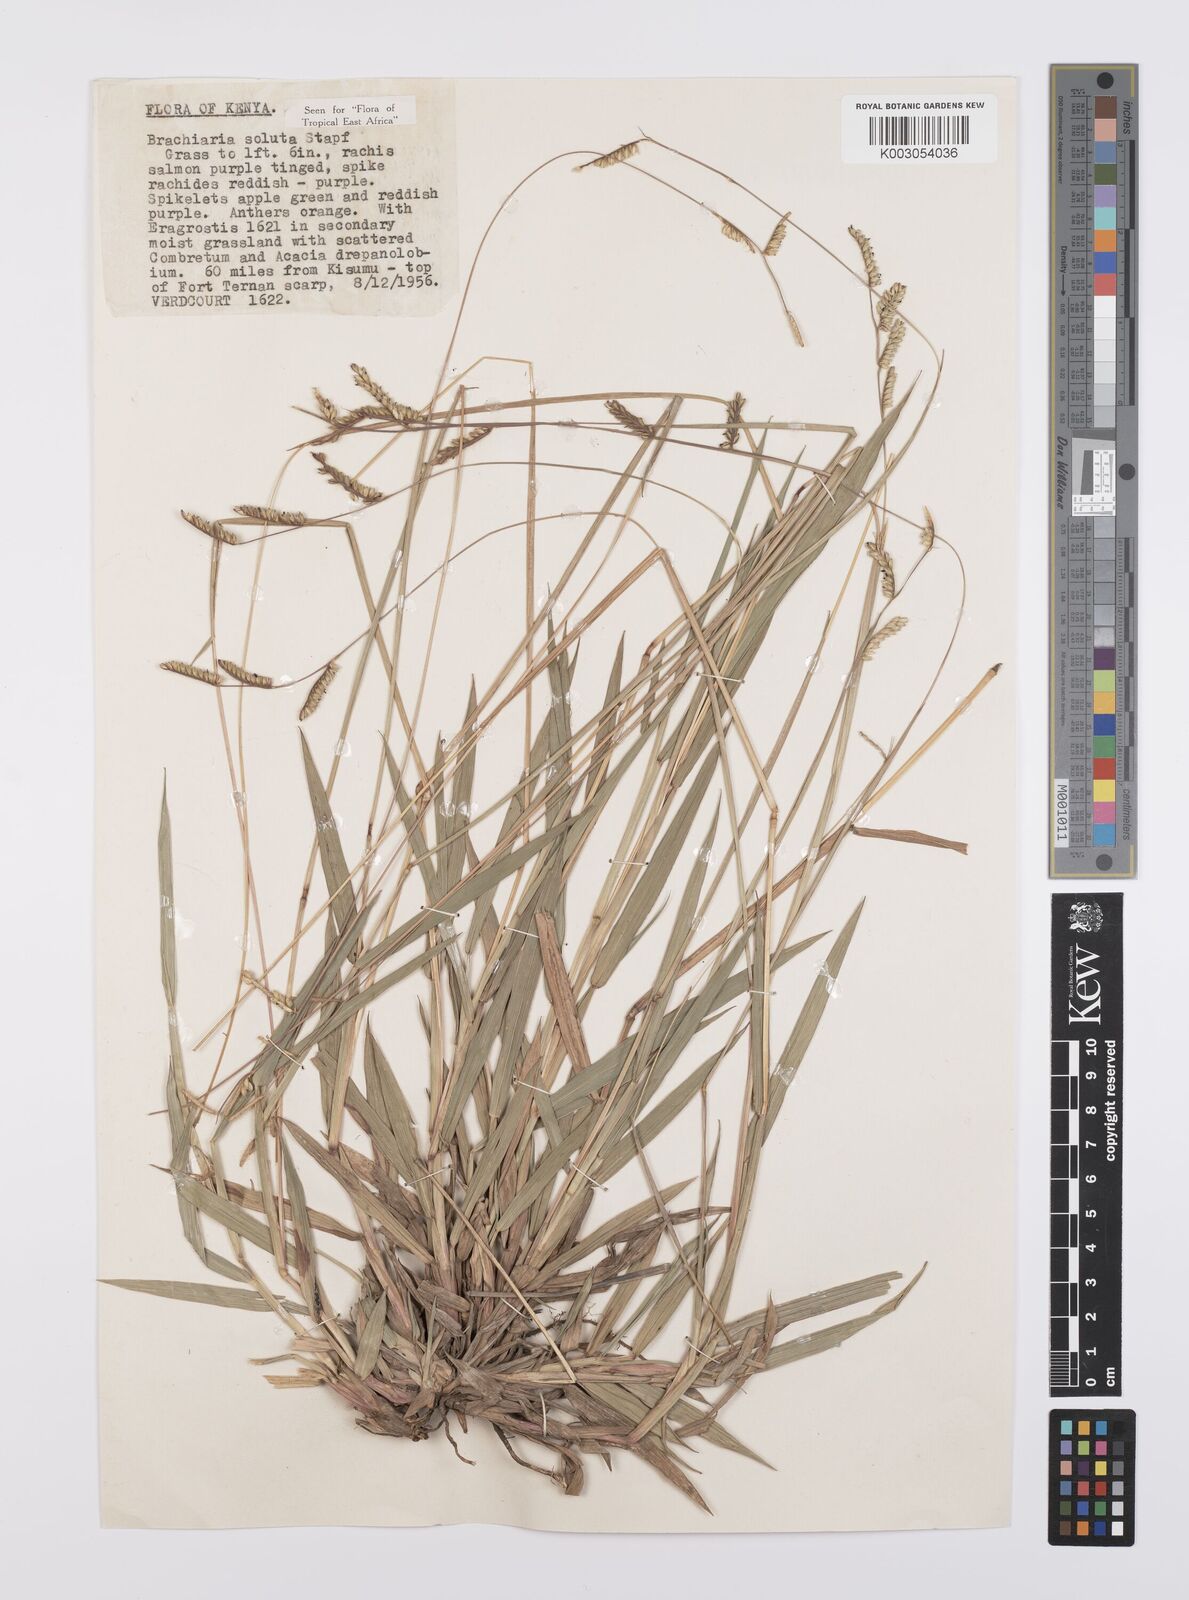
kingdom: Plantae
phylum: Tracheophyta
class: Liliopsida
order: Poales
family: Poaceae
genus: Urochloa
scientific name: Urochloa jubata
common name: Buffalograss
